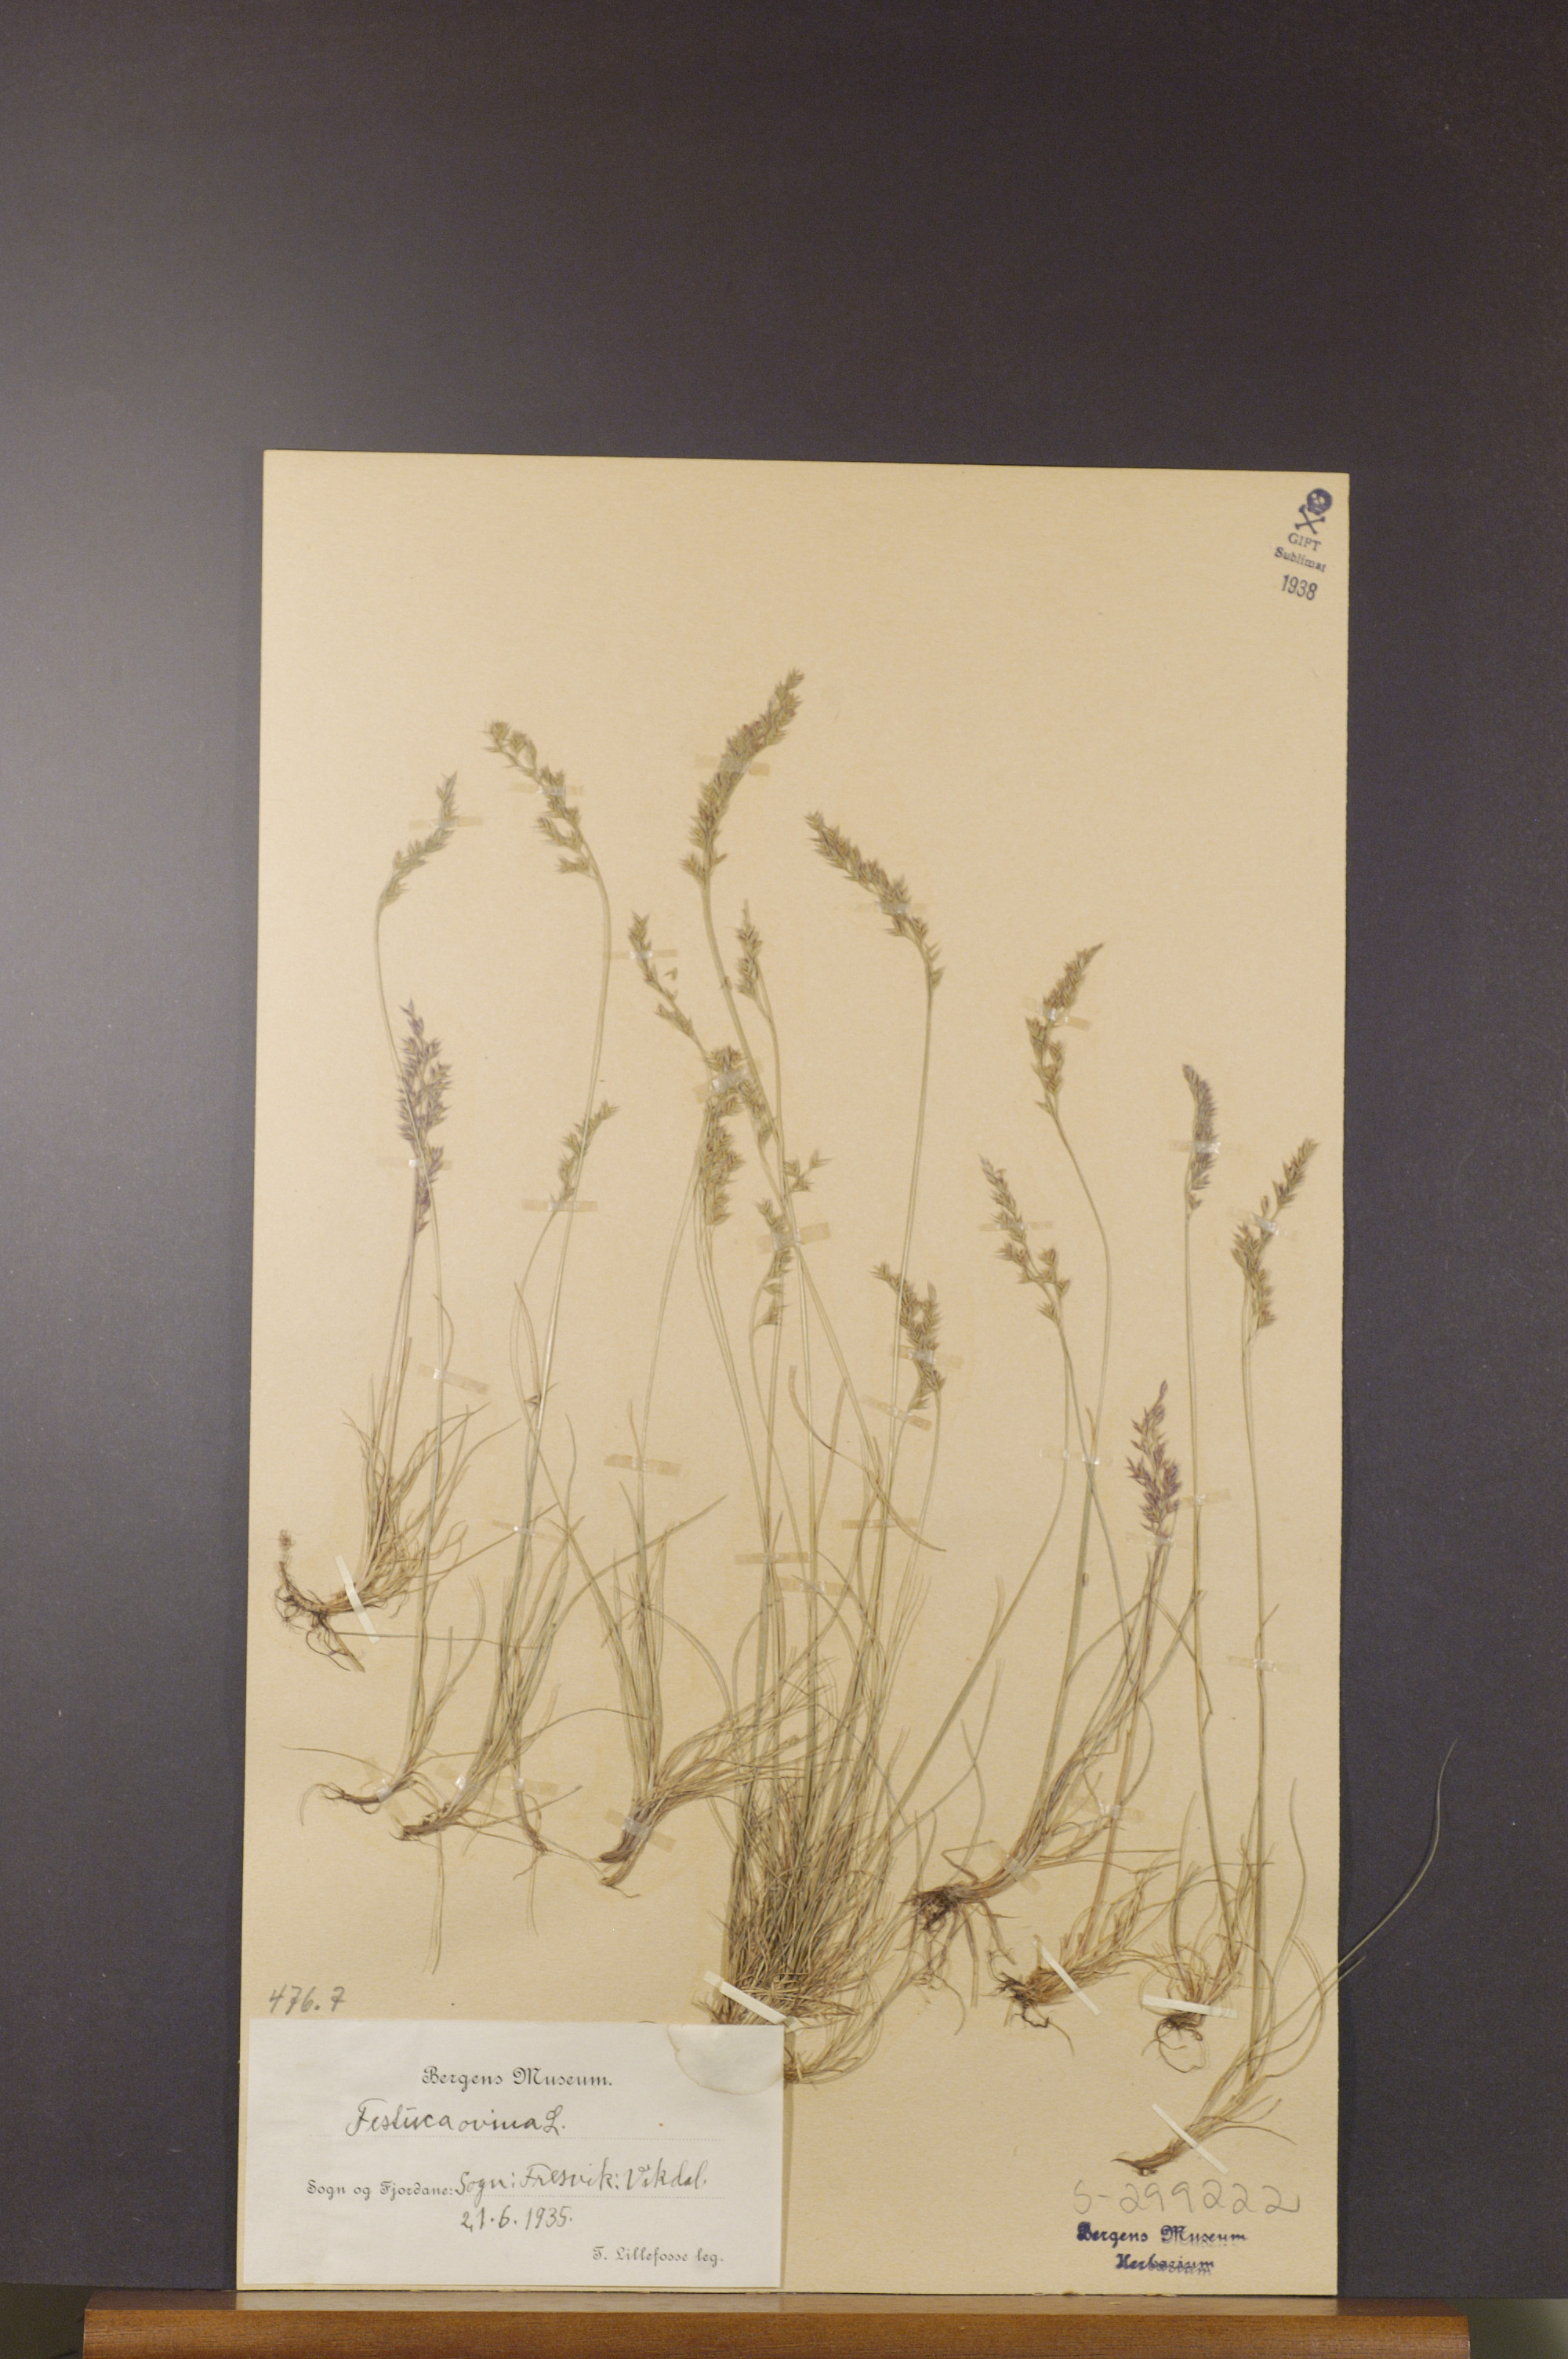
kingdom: Plantae
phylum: Tracheophyta
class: Liliopsida
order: Poales
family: Poaceae
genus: Festuca
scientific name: Festuca ovina
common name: Sheep fescue
